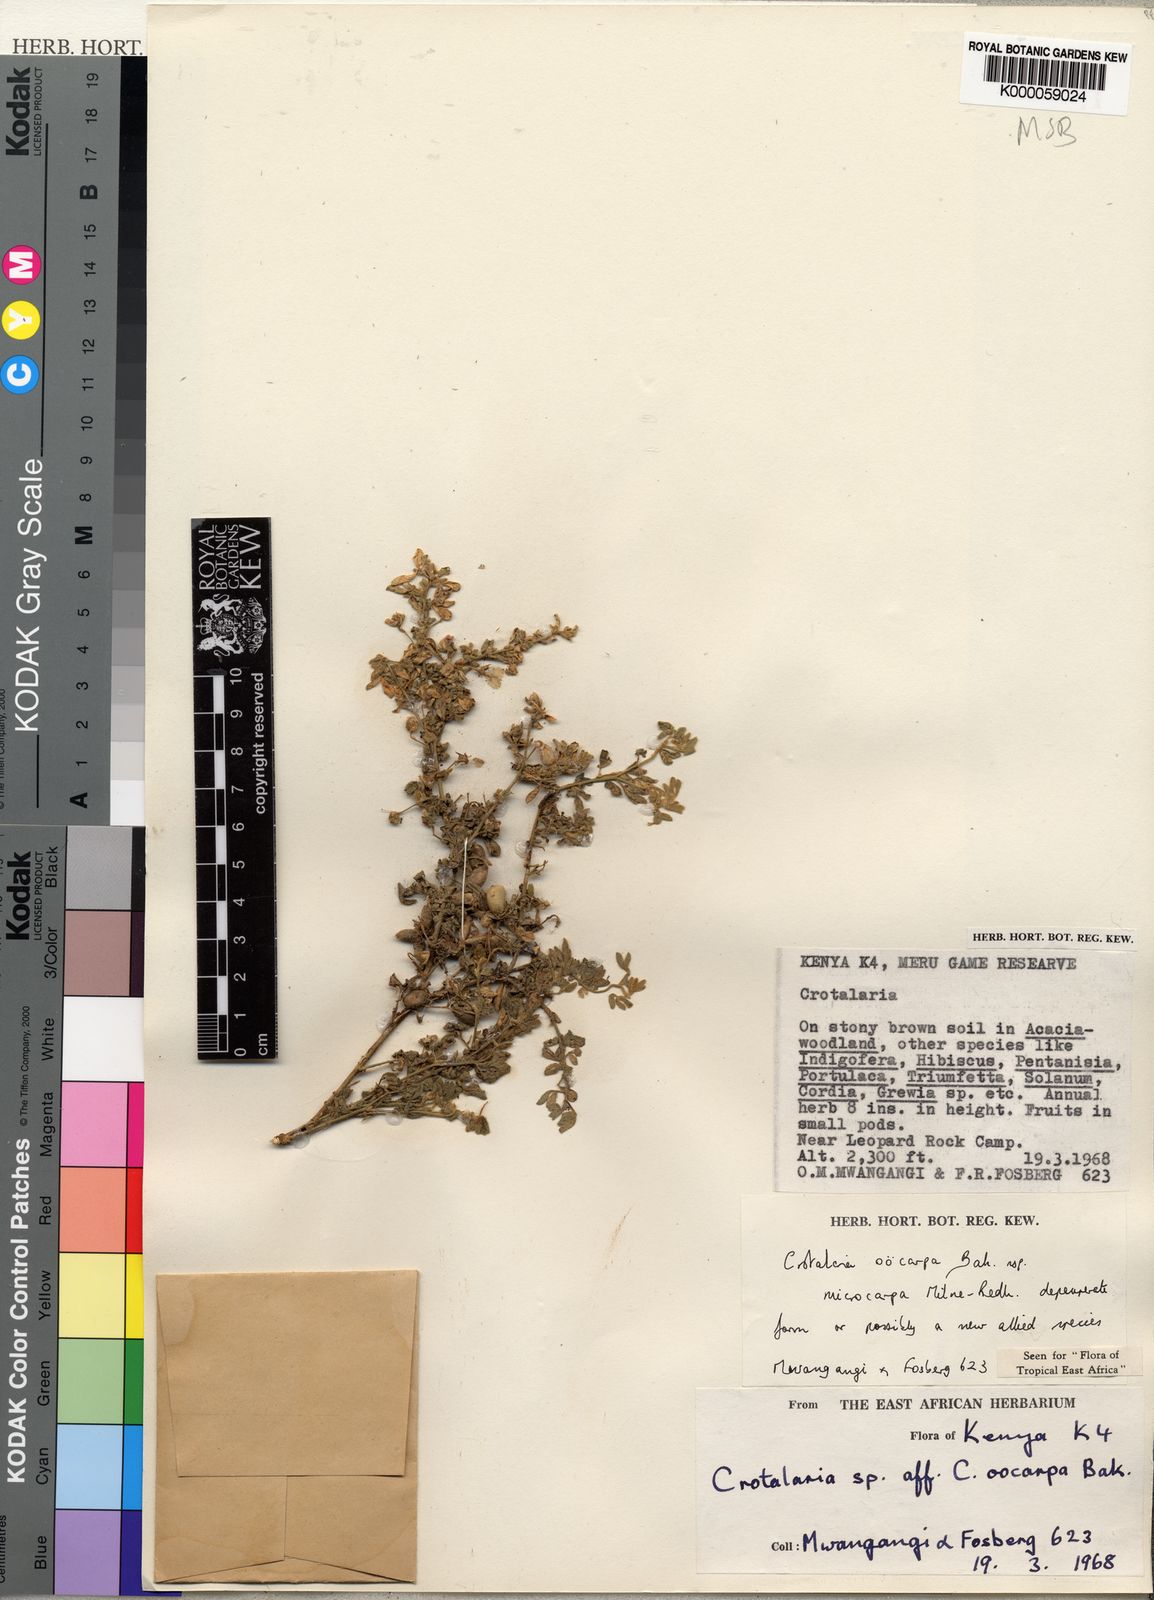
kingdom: Plantae
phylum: Tracheophyta
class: Magnoliopsida
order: Fabales
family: Fabaceae
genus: Crotalaria
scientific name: Crotalaria oocarpa
